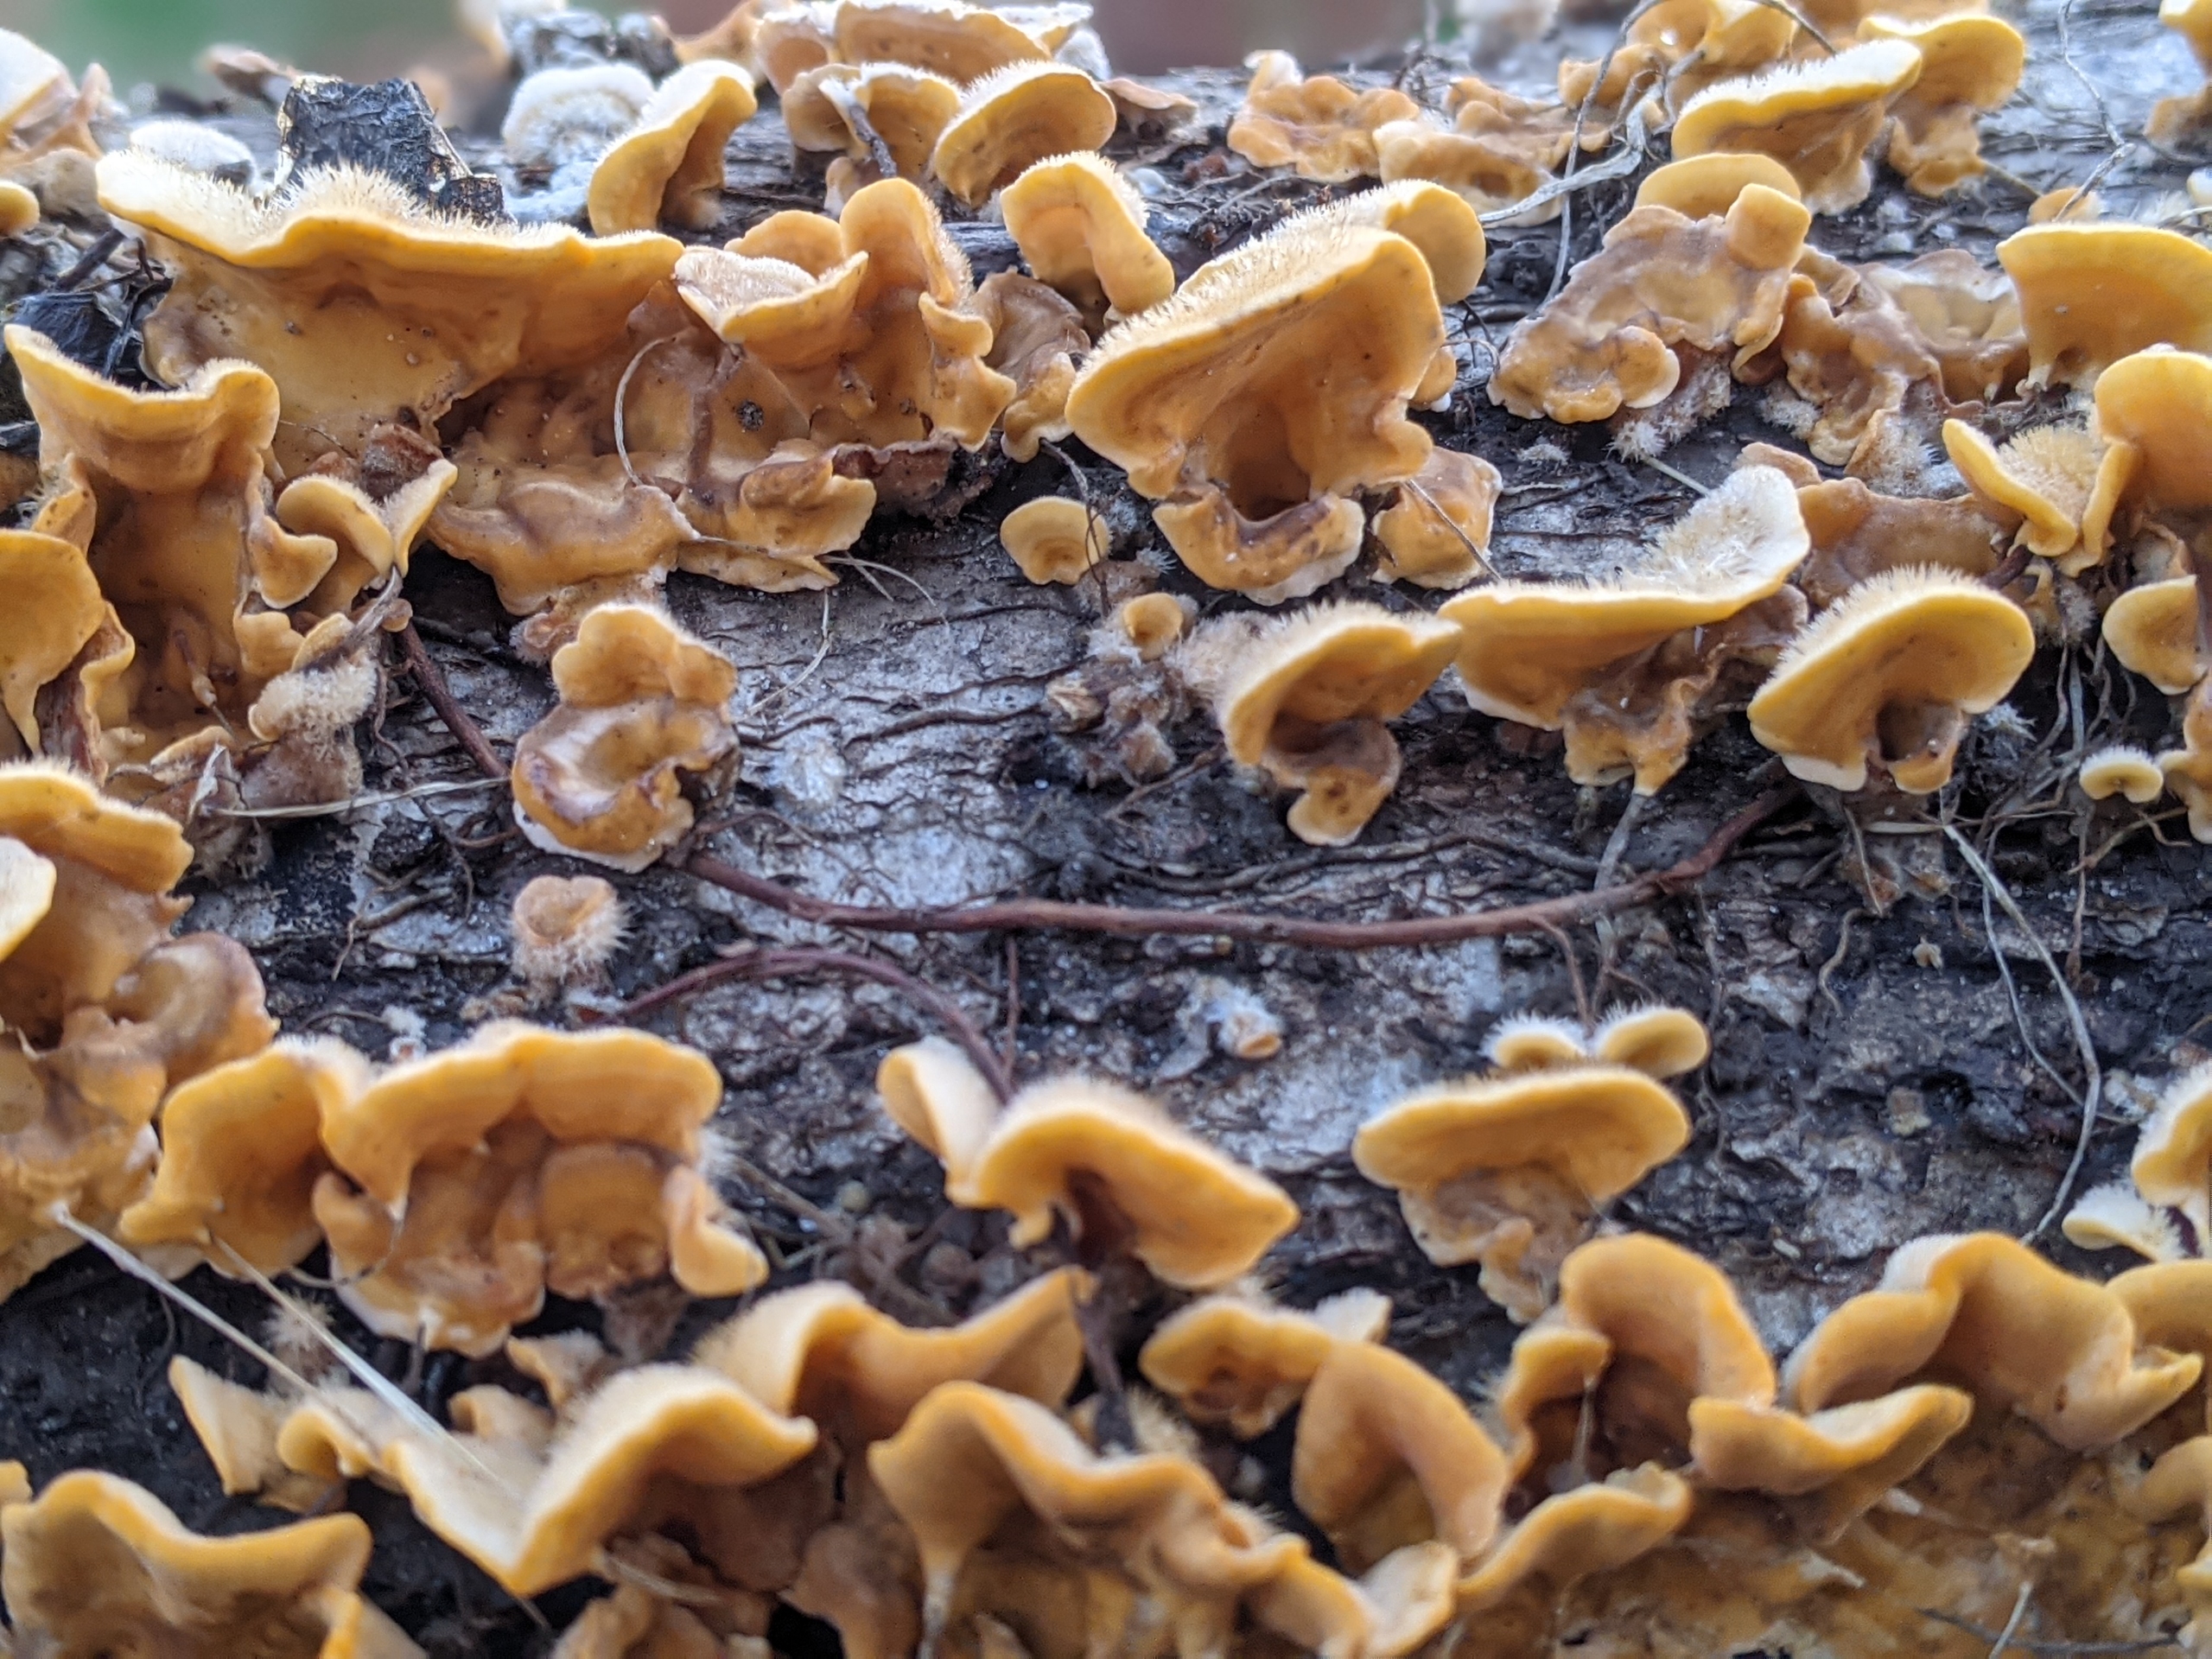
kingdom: Fungi
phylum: Basidiomycota
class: Agaricomycetes
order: Russulales
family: Stereaceae
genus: Stereum
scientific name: Stereum hirsutum
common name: Håret lædersvamp
